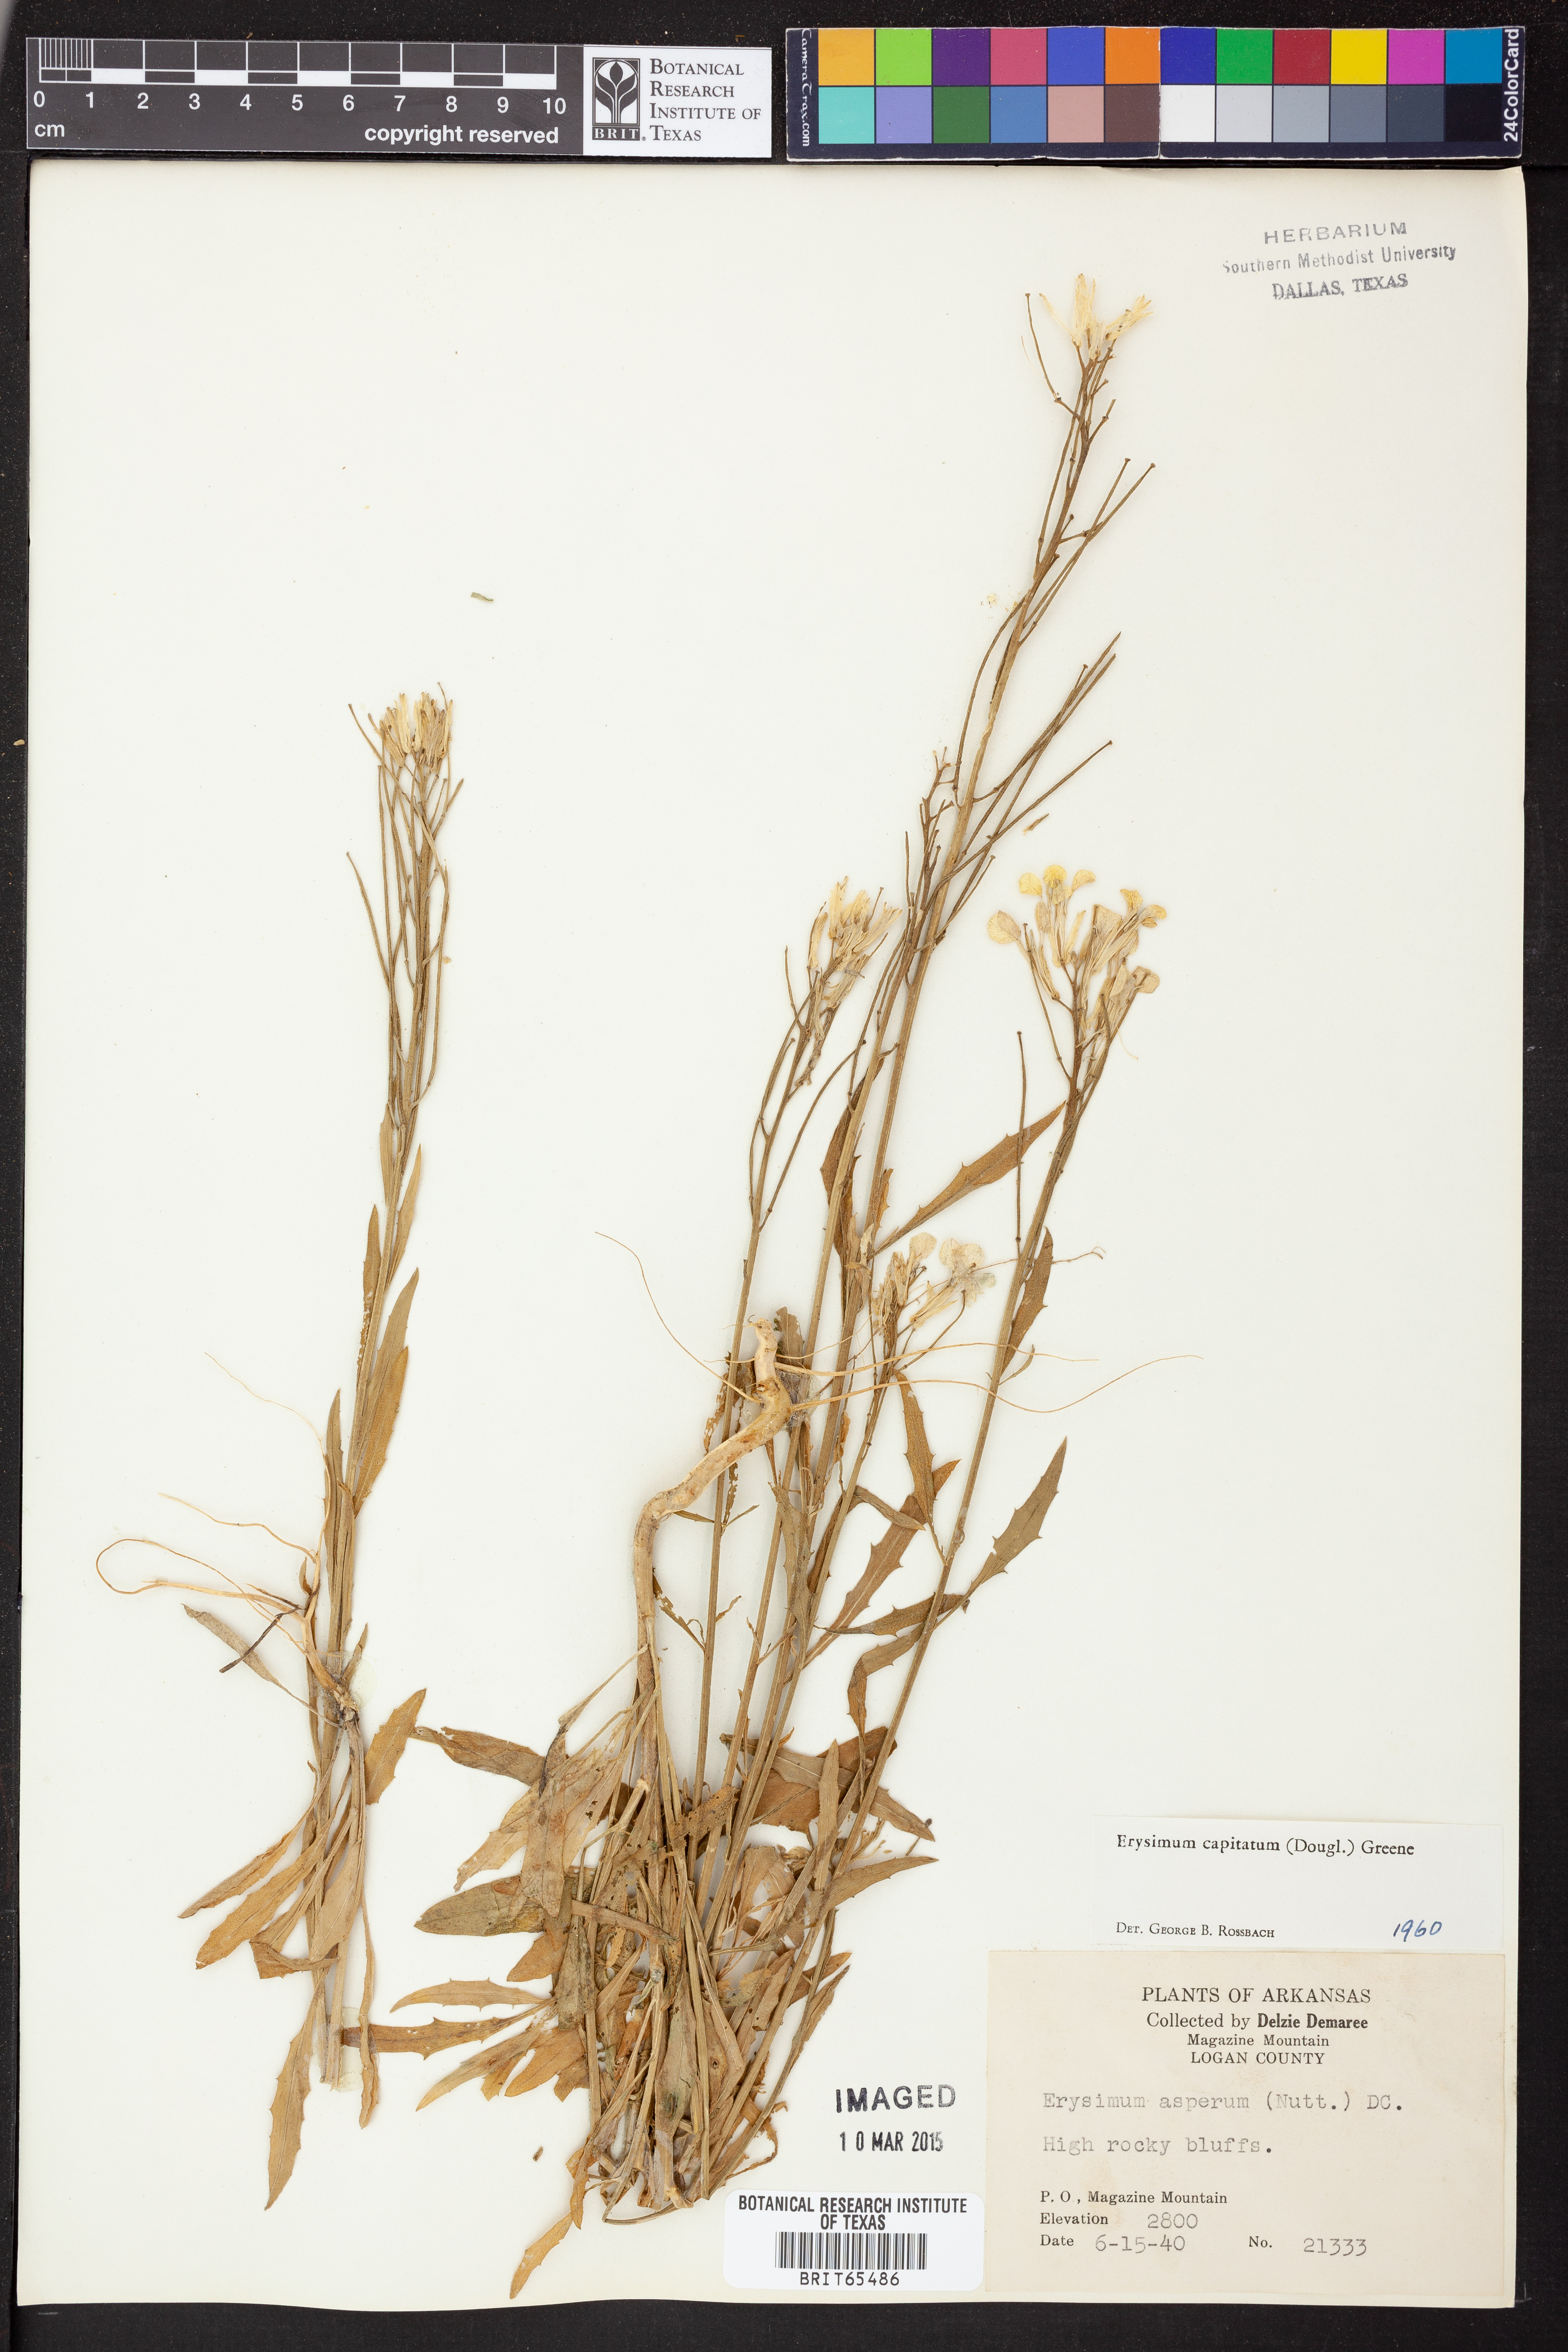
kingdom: Plantae
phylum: Tracheophyta
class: Magnoliopsida
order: Brassicales
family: Brassicaceae
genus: Erysimum
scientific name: Erysimum capitatum
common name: Western wallflower
